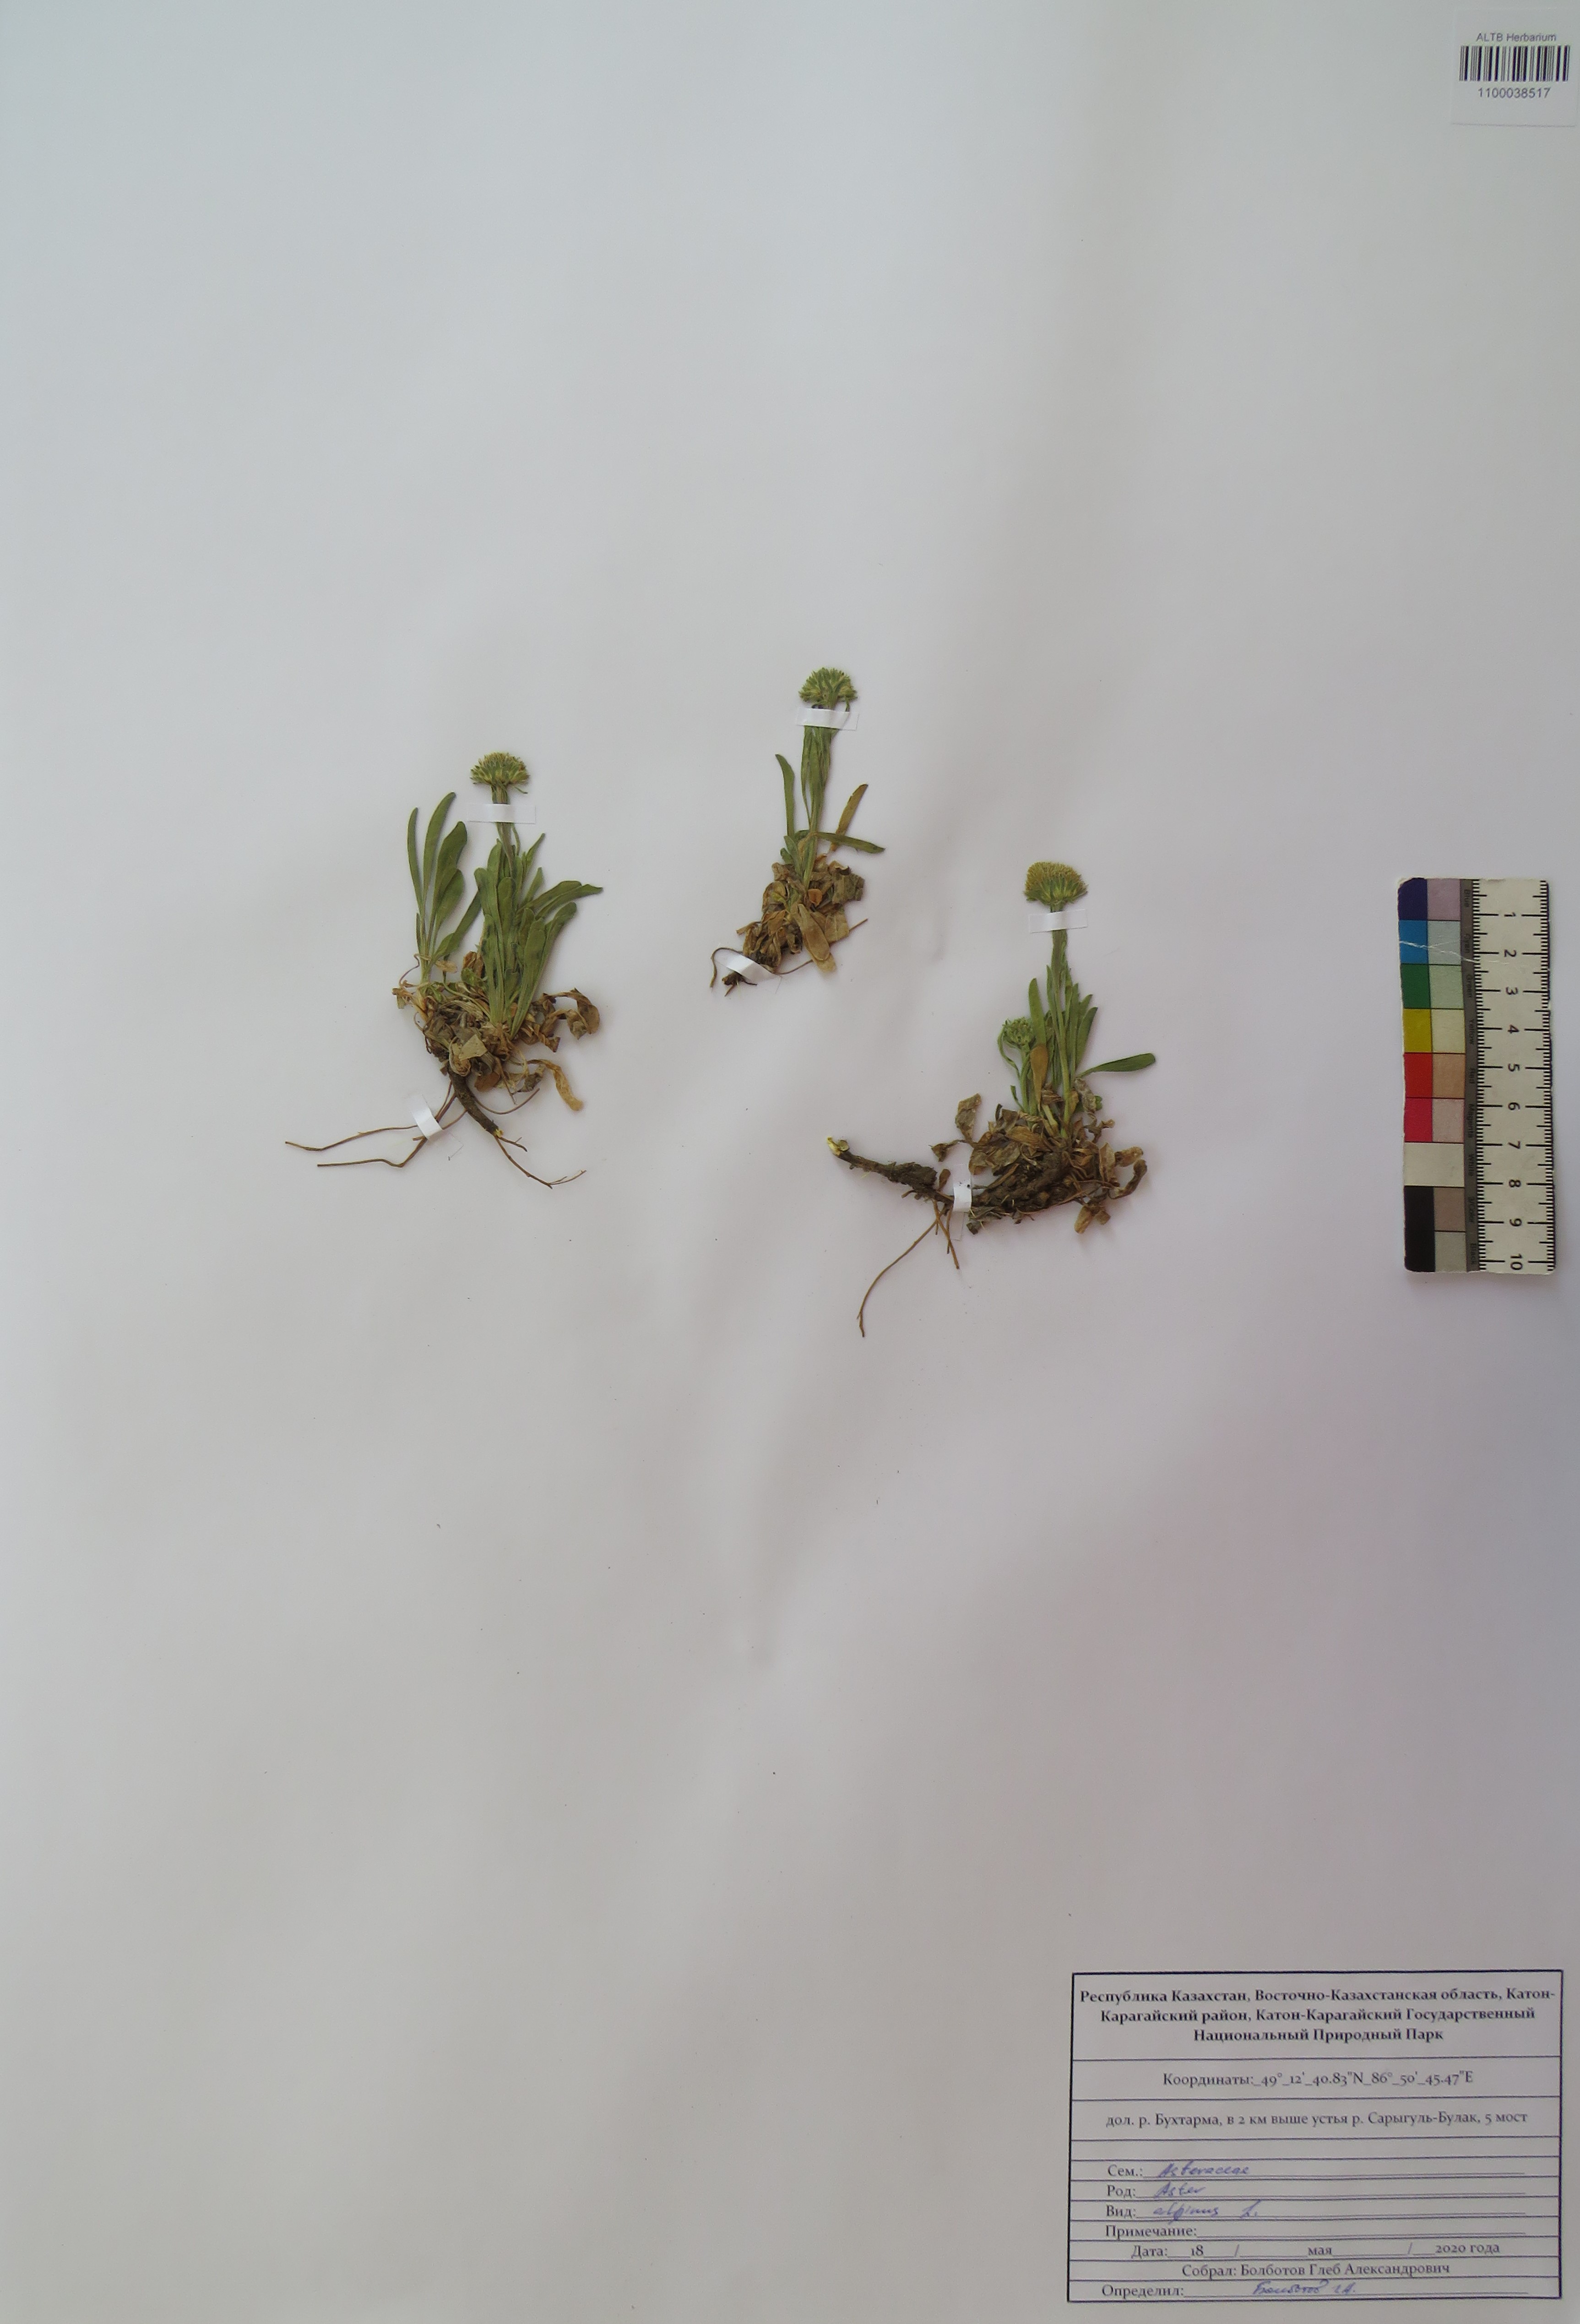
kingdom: Plantae
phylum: Tracheophyta
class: Magnoliopsida
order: Asterales
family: Asteraceae
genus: Aster
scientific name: Aster alpinus
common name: Alpine aster
